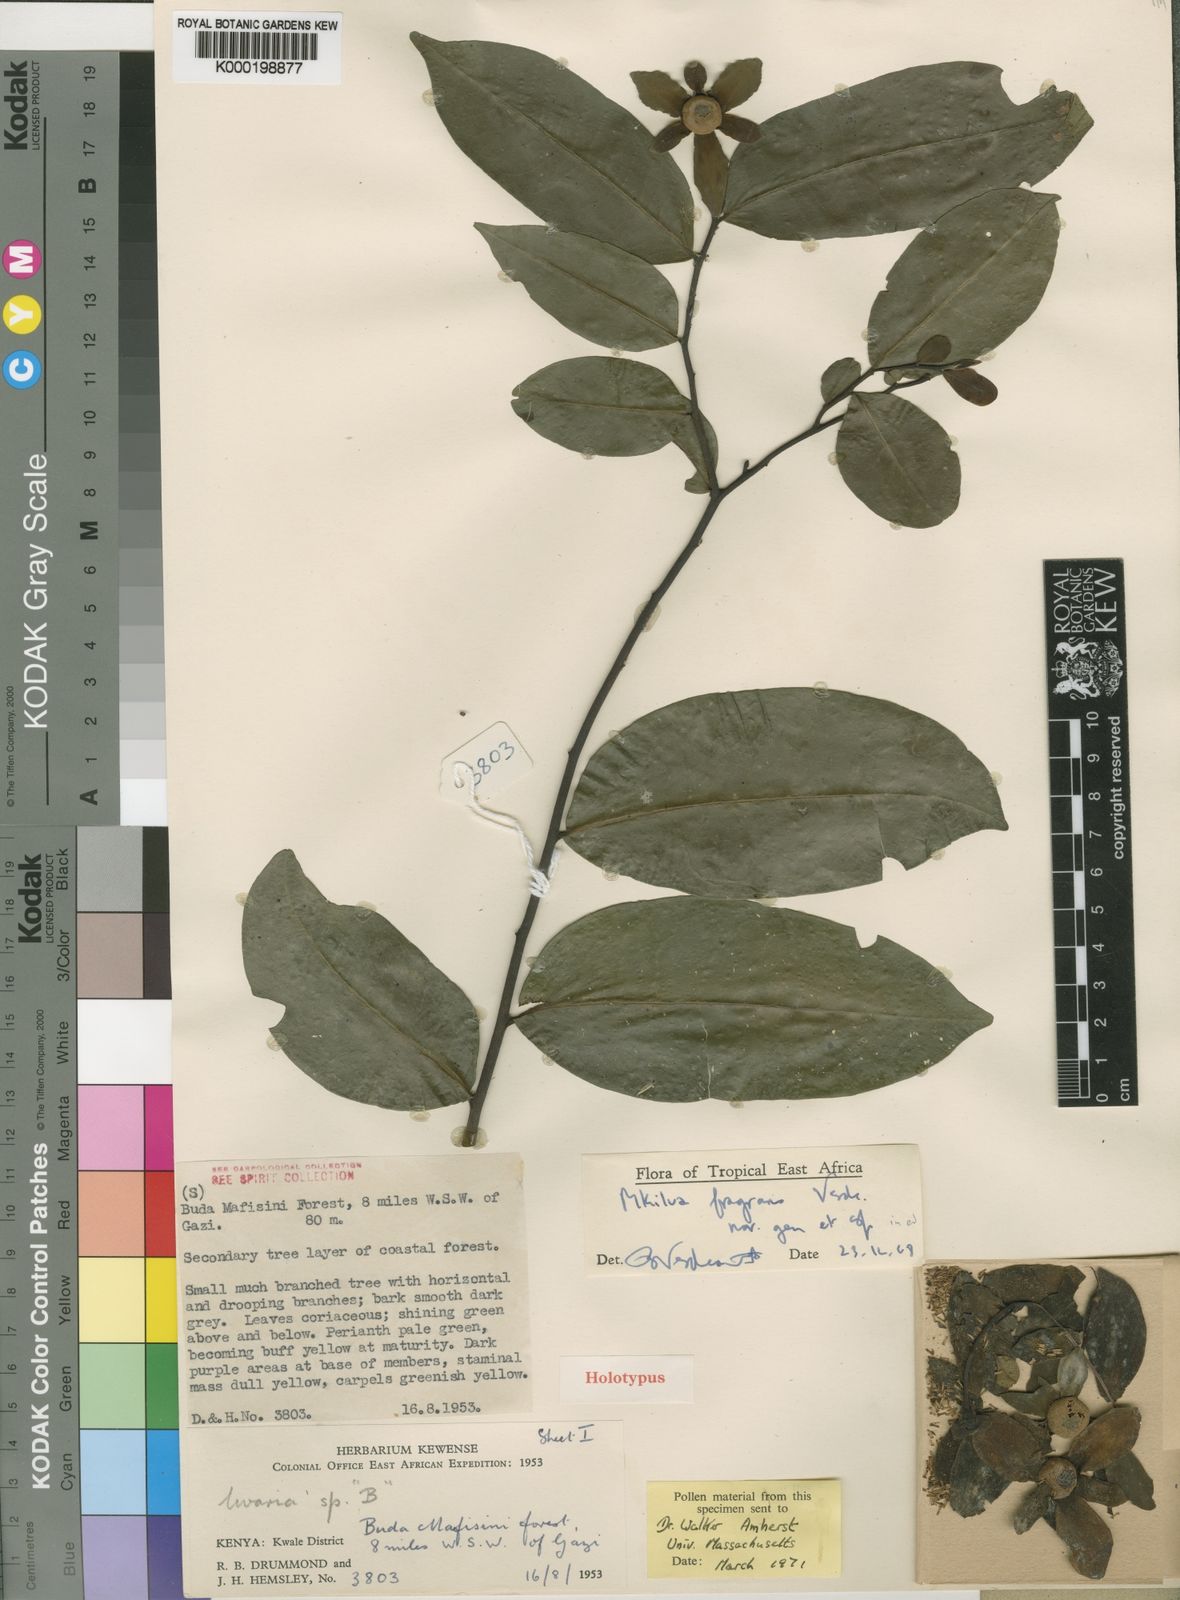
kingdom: Plantae
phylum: Tracheophyta
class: Magnoliopsida
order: Magnoliales
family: Annonaceae
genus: Mkilua
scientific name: Mkilua fragrans
